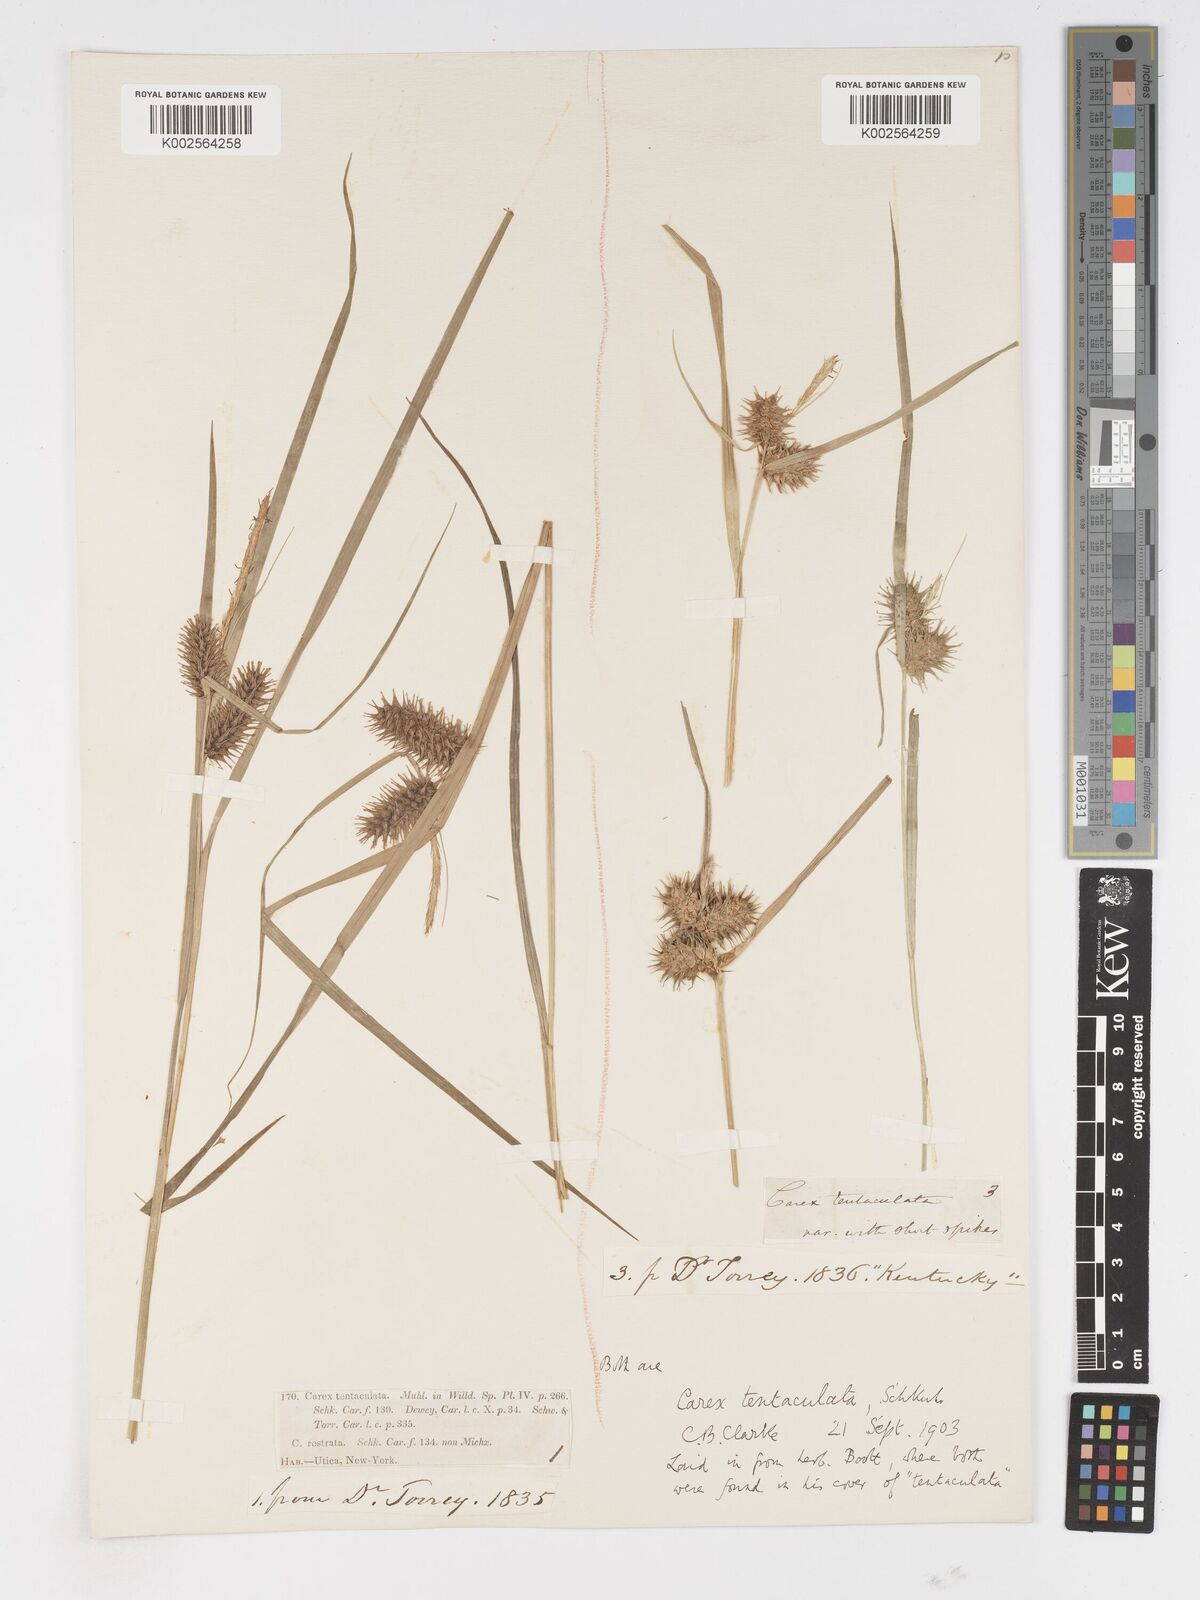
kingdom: Plantae
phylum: Tracheophyta
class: Liliopsida
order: Poales
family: Cyperaceae
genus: Carex
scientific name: Carex lurida
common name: Sallow sedge
